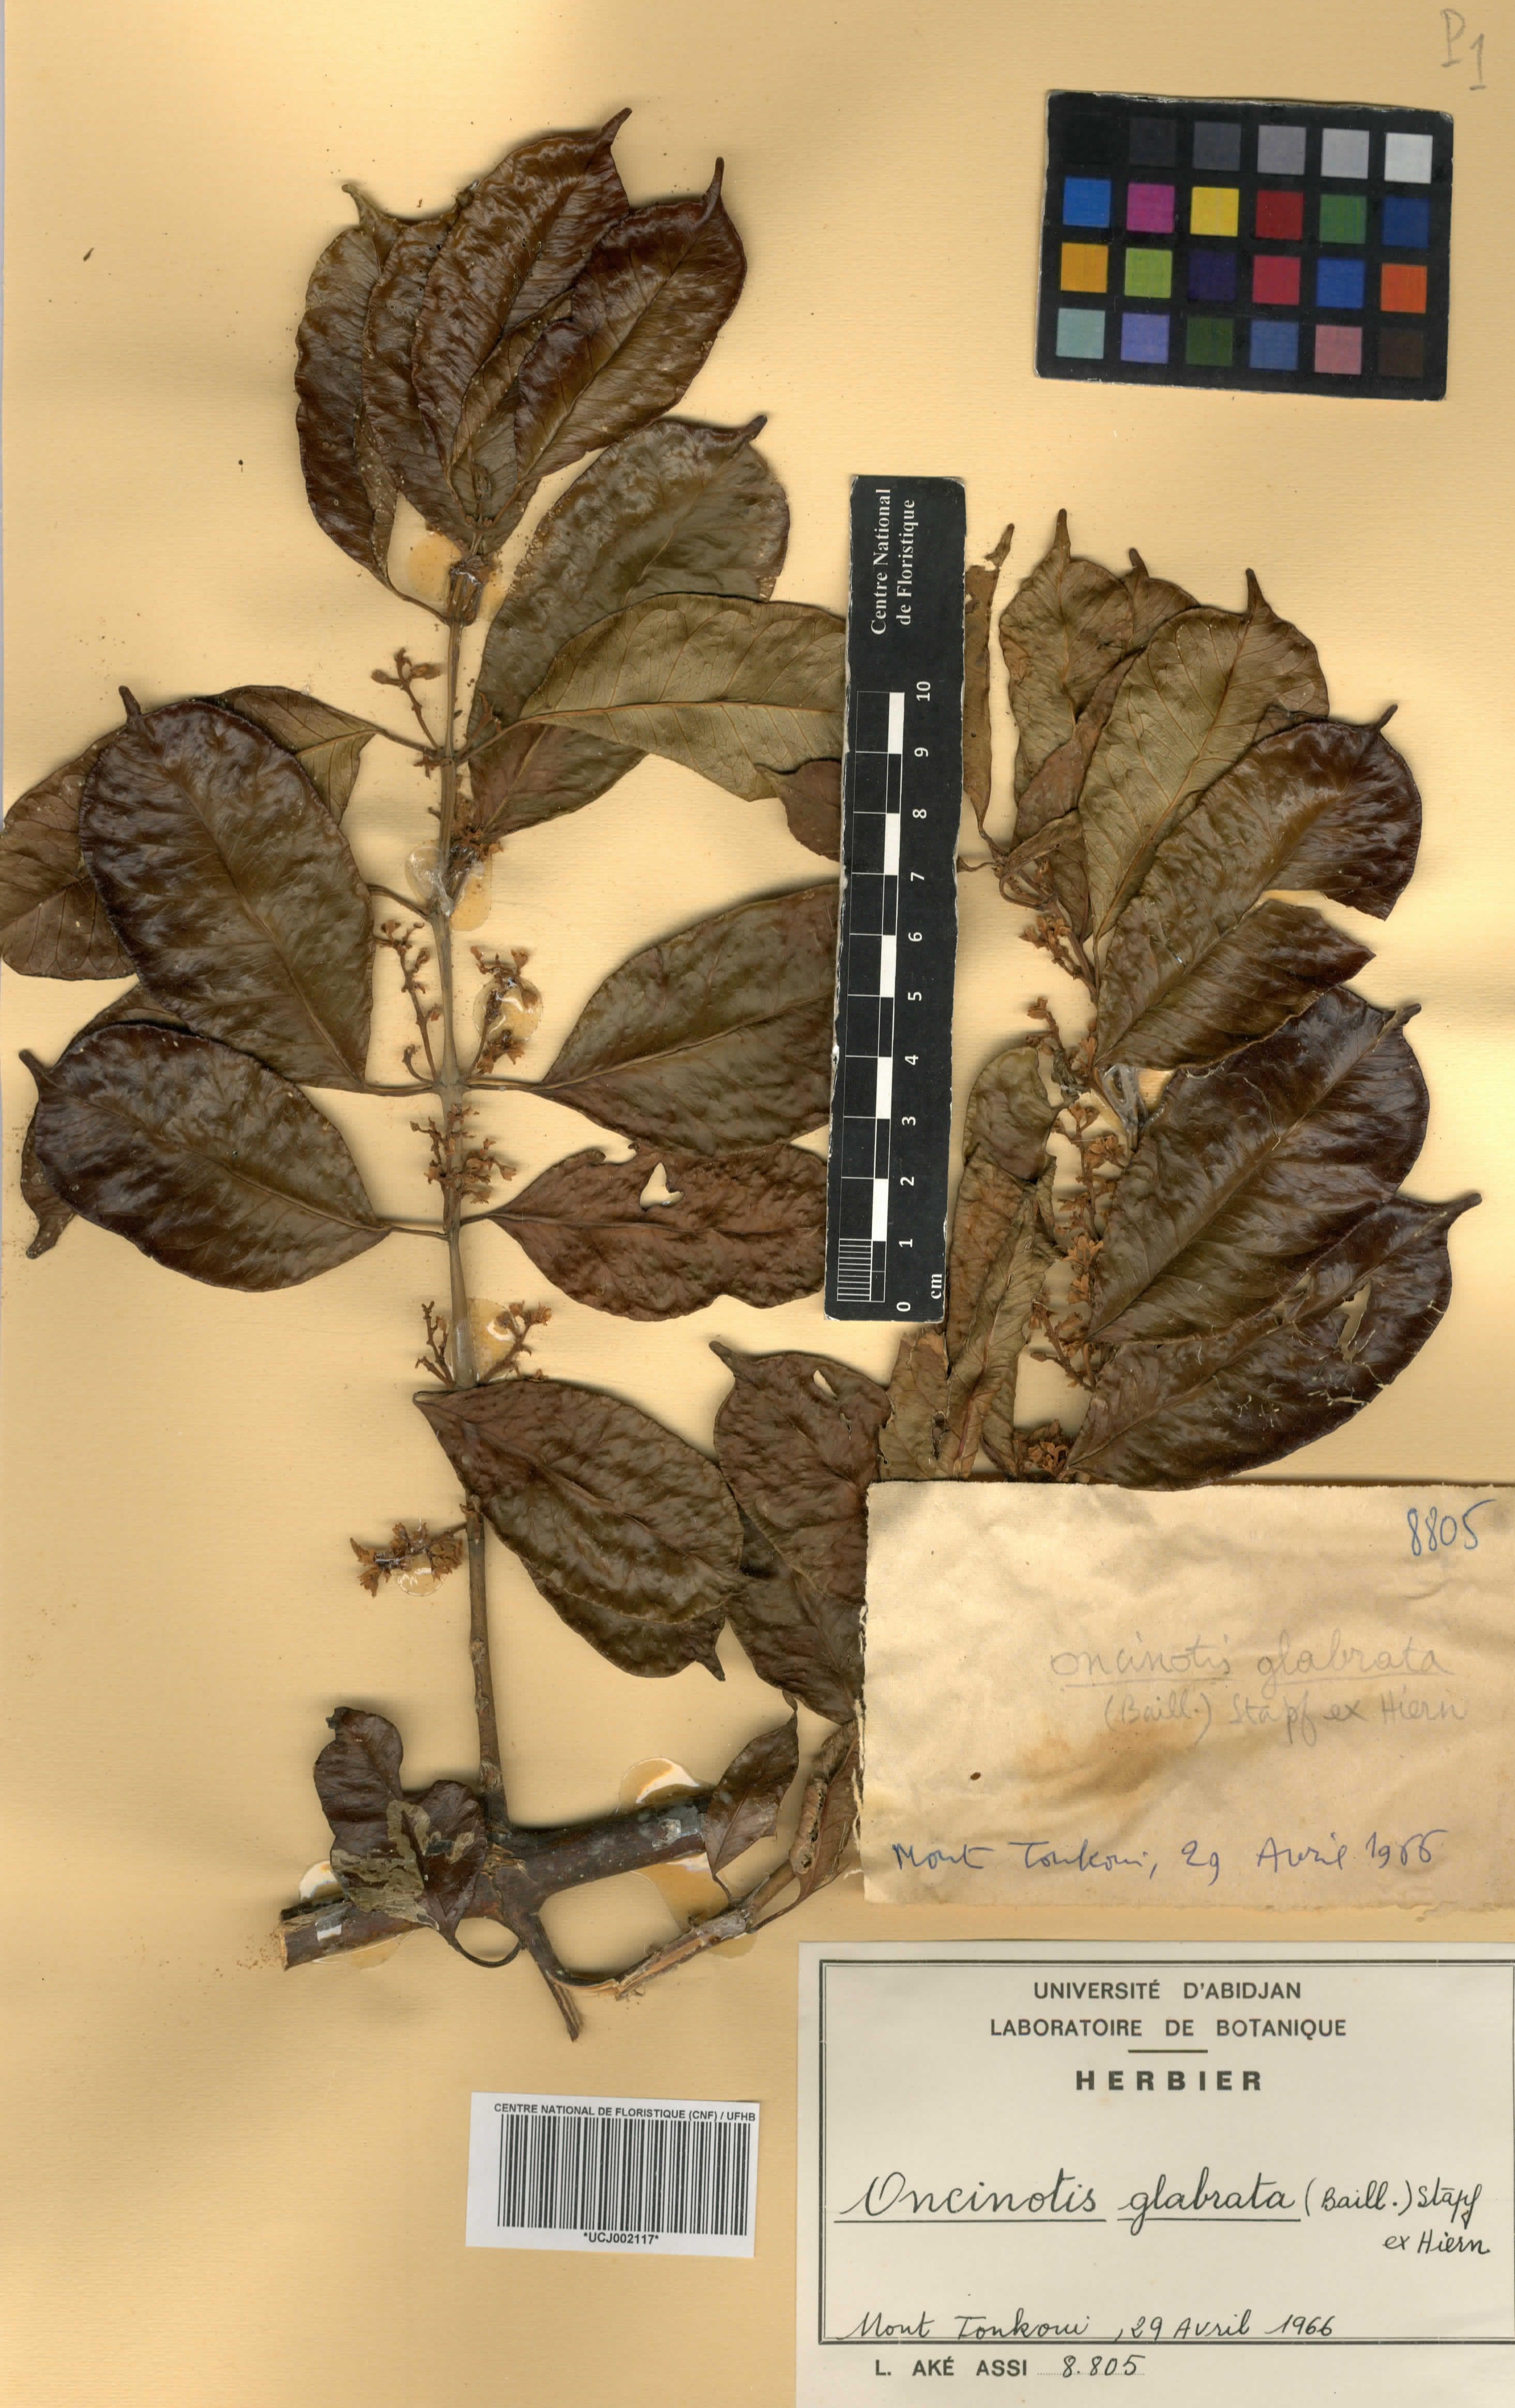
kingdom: Plantae
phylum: Tracheophyta
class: Magnoliopsida
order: Gentianales
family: Apocynaceae
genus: Oncinotis
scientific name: Oncinotis glabrata
